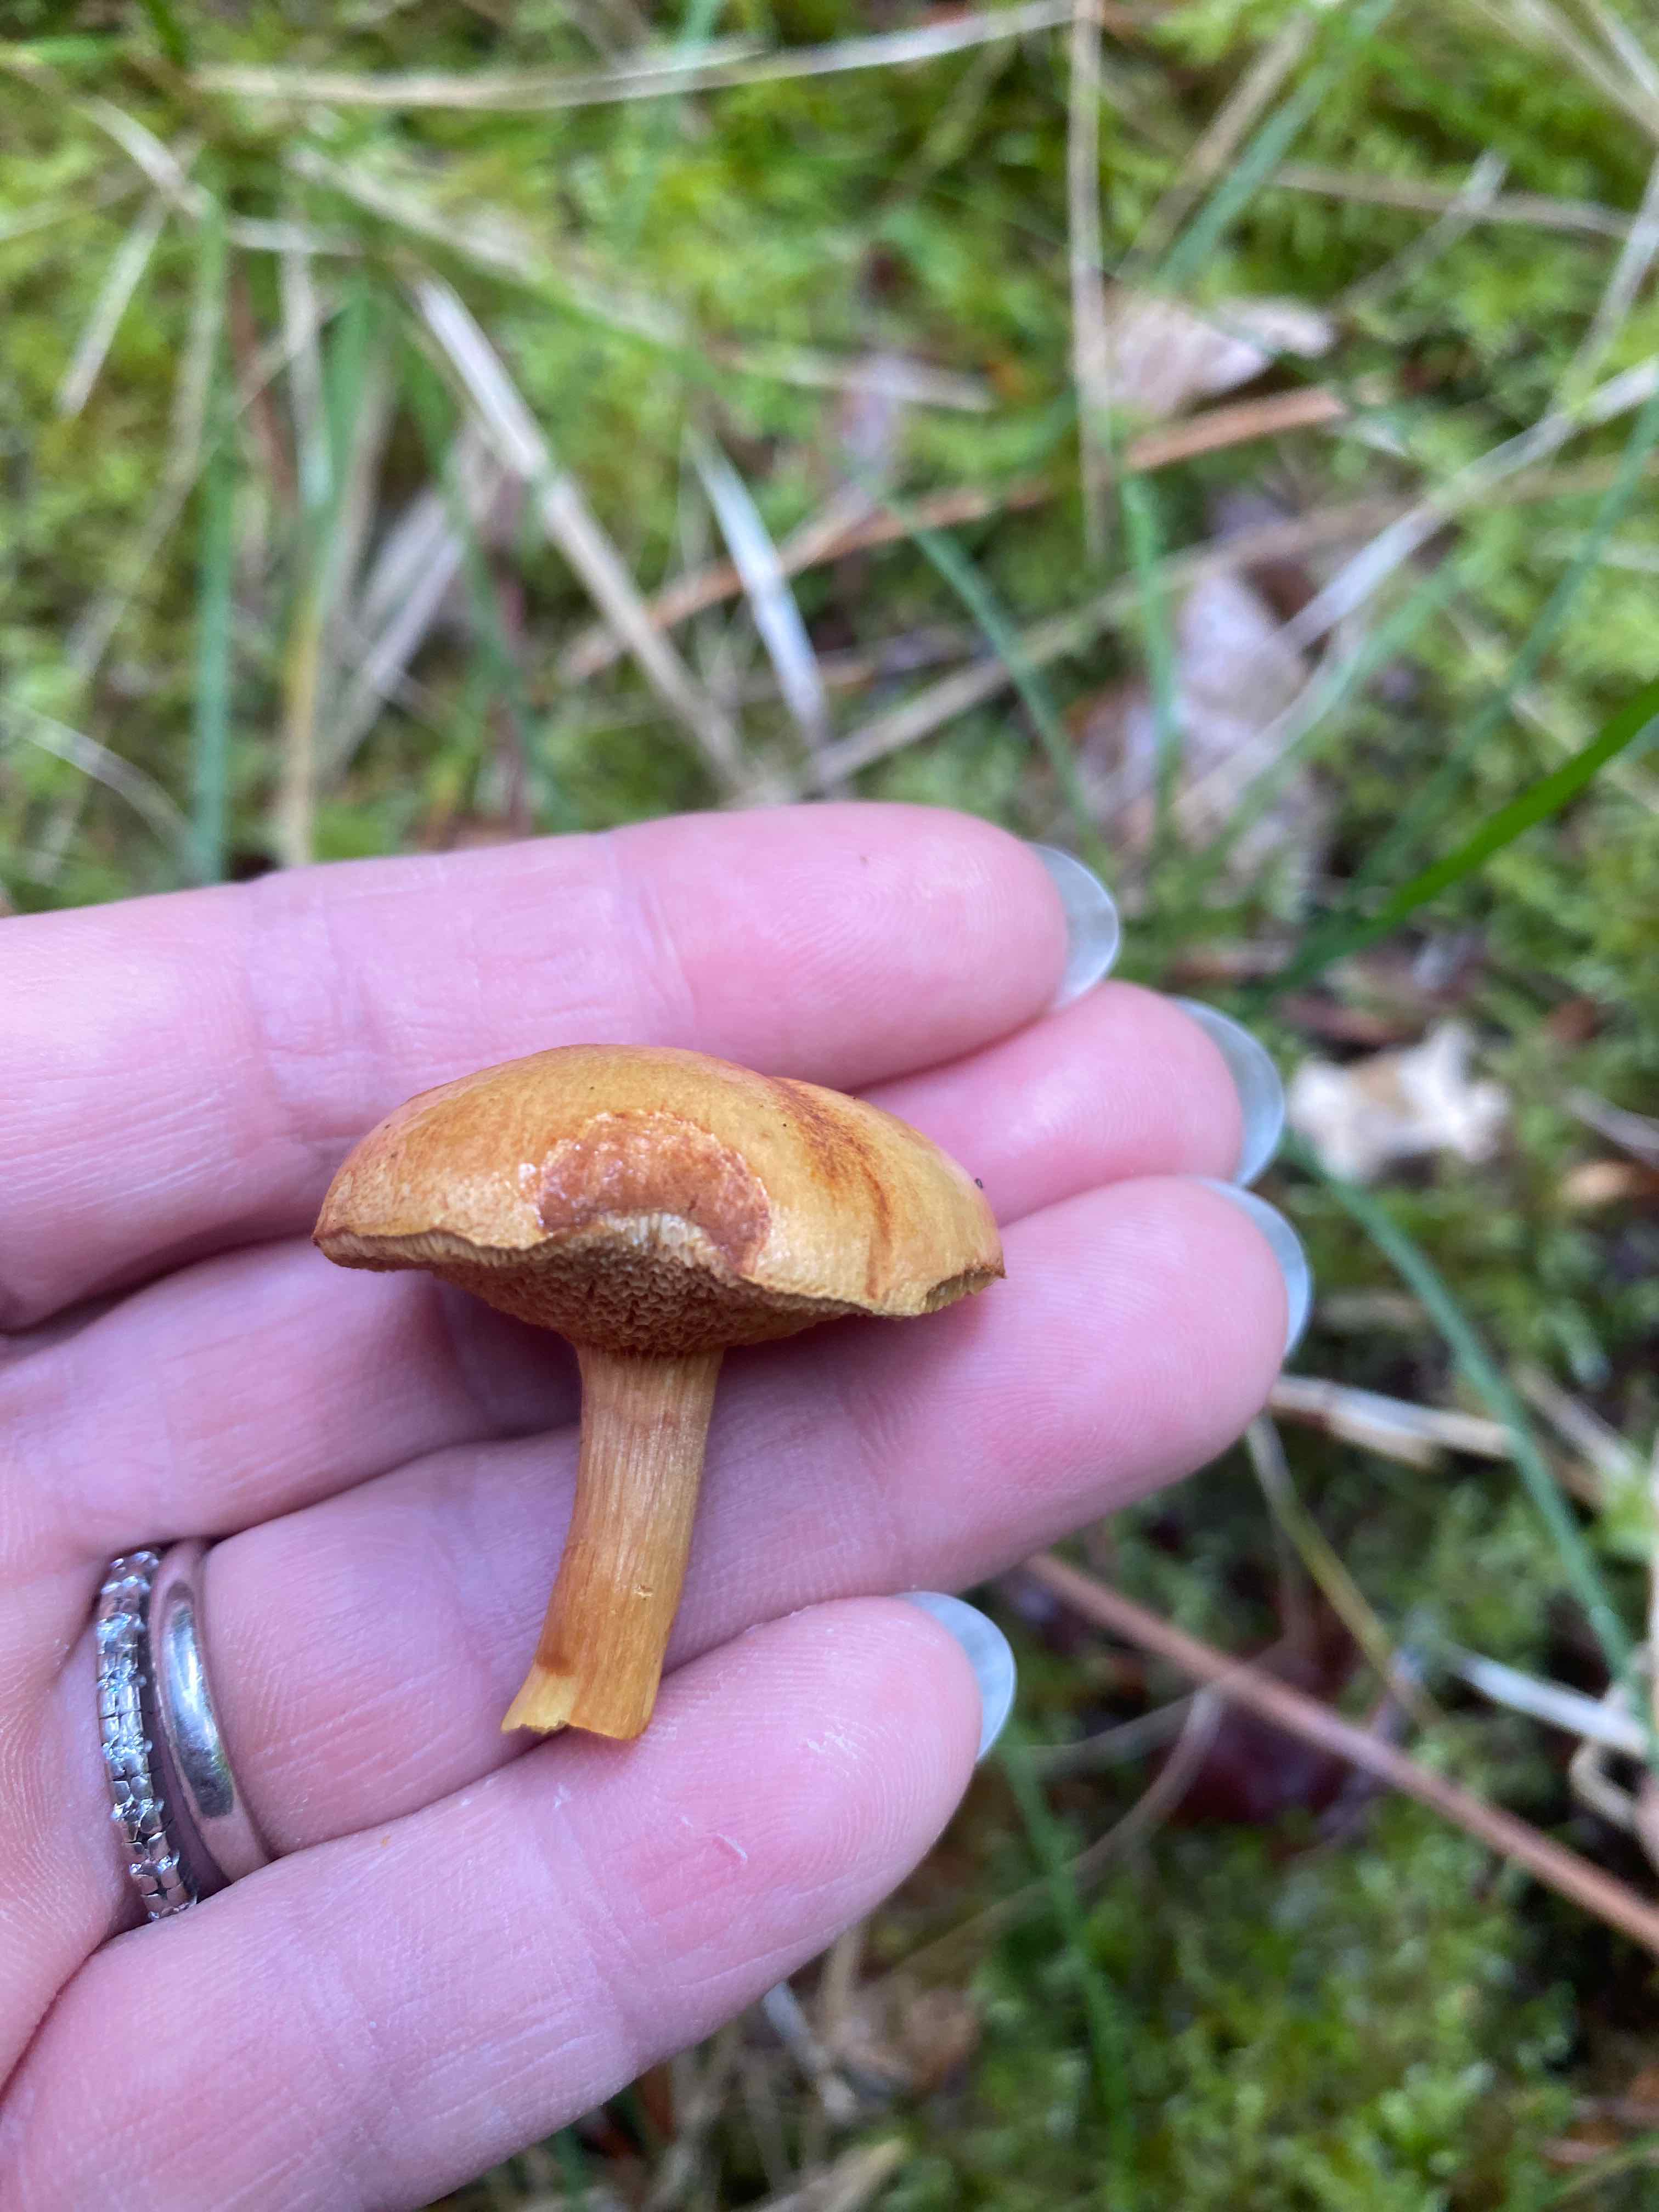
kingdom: Fungi
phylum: Basidiomycota
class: Agaricomycetes
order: Boletales
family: Boletaceae
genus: Chalciporus
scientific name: Chalciporus piperatus
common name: peberrørhat
